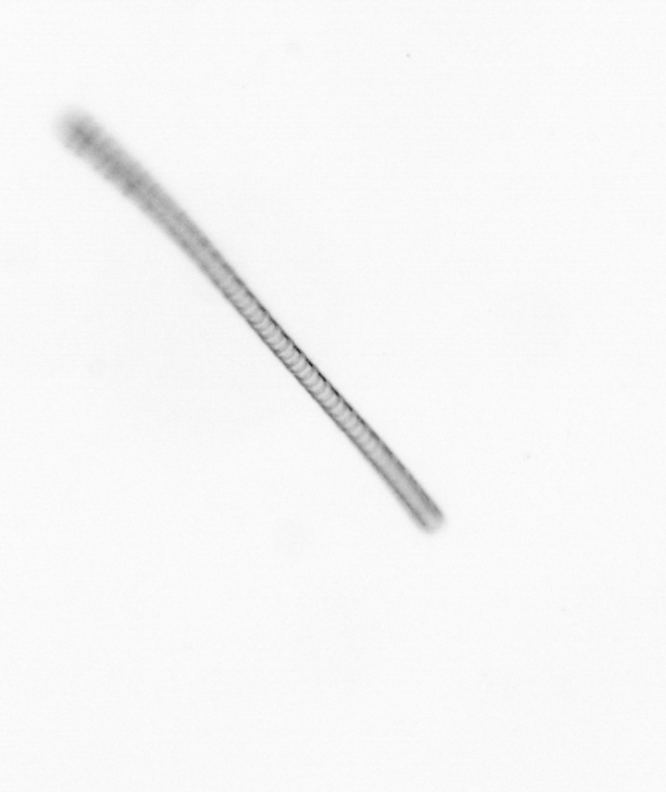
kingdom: Chromista
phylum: Ochrophyta
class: Bacillariophyceae
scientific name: Bacillariophyceae
